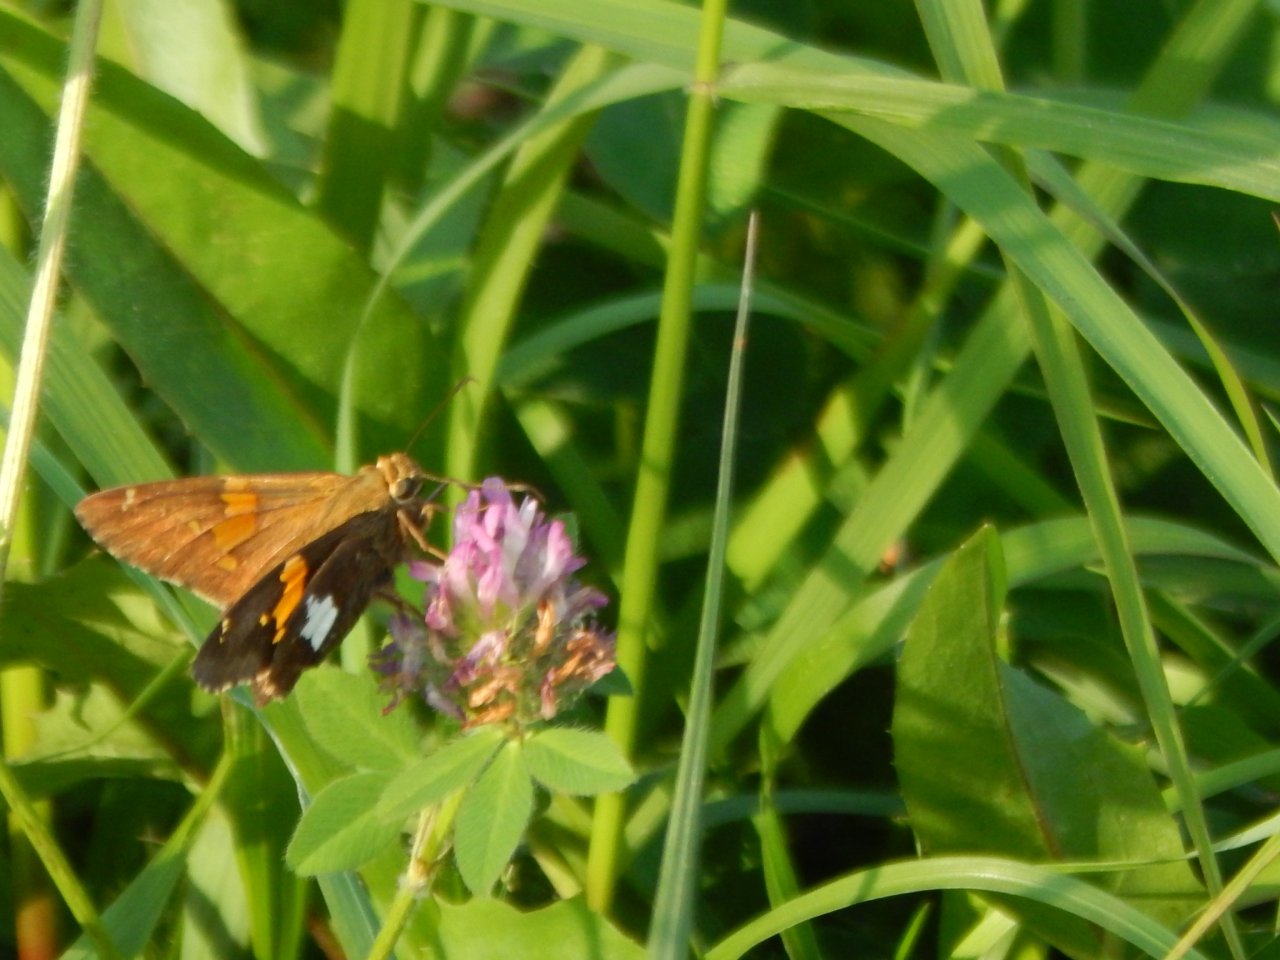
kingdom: Animalia
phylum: Arthropoda
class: Insecta
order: Lepidoptera
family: Hesperiidae
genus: Epargyreus
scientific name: Epargyreus clarus
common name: Silver-spotted Skipper
